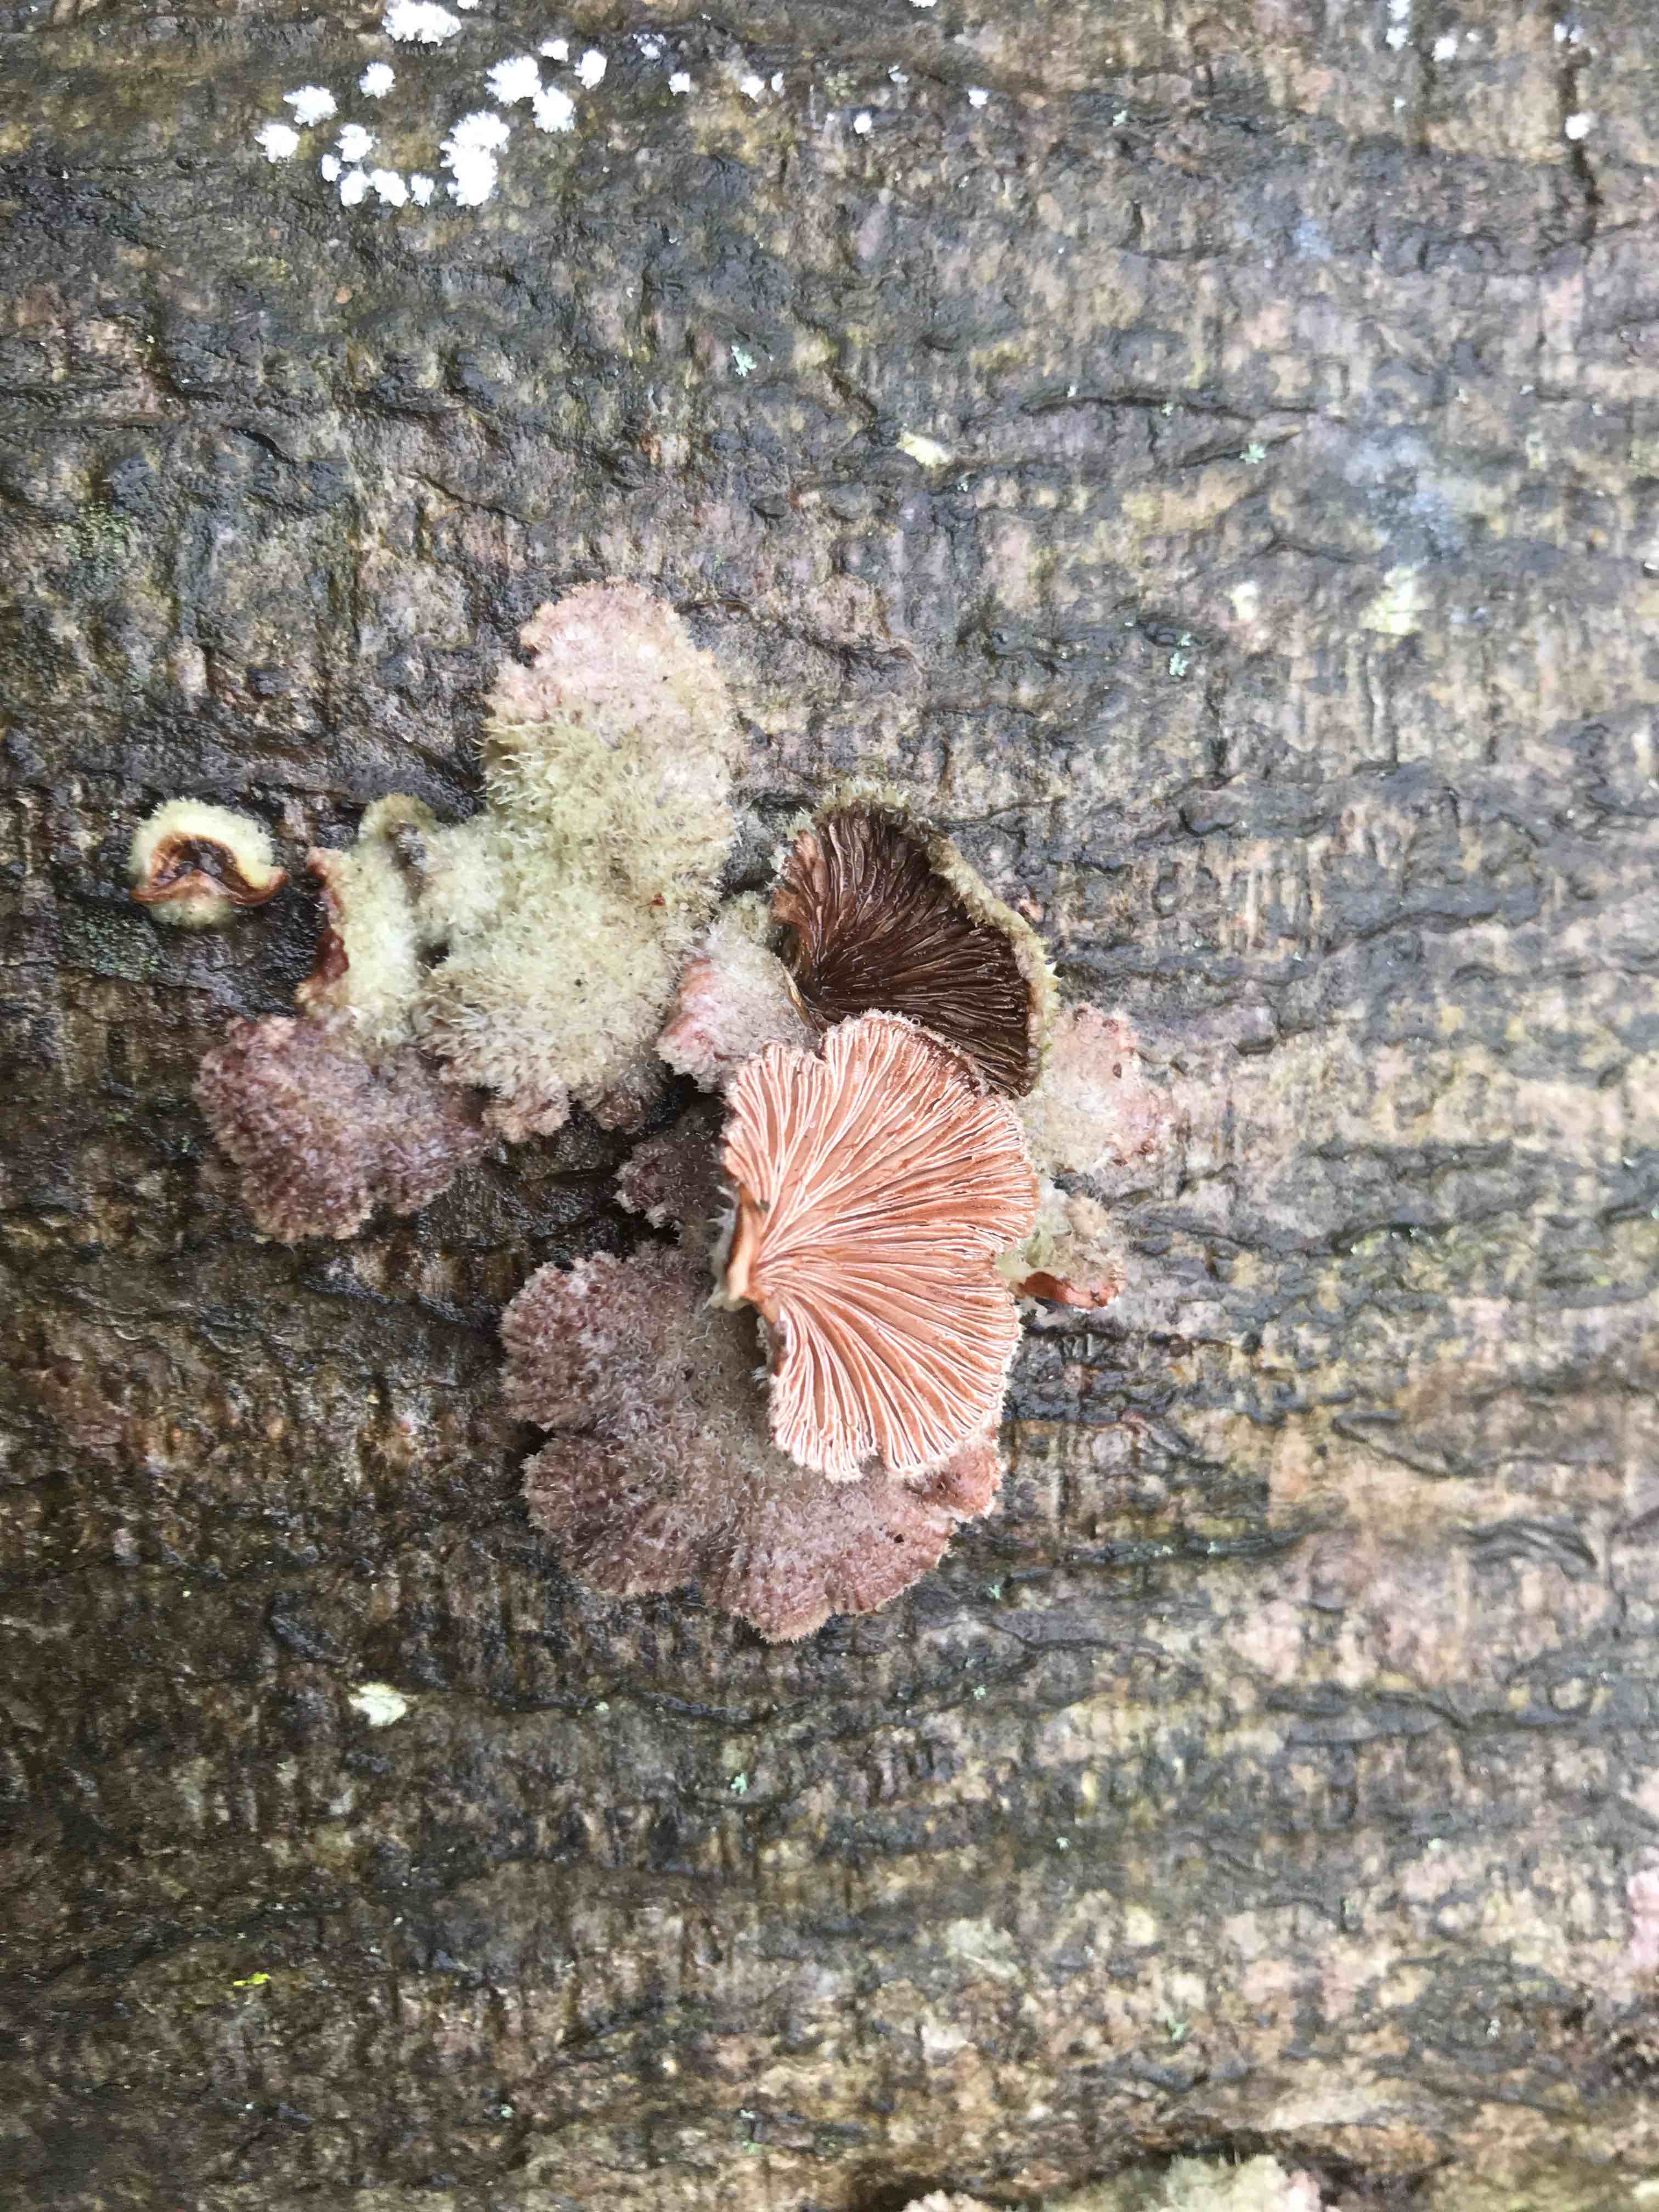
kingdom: Fungi
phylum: Basidiomycota
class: Agaricomycetes
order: Agaricales
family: Schizophyllaceae
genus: Schizophyllum
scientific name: Schizophyllum commune
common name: kløvblad
